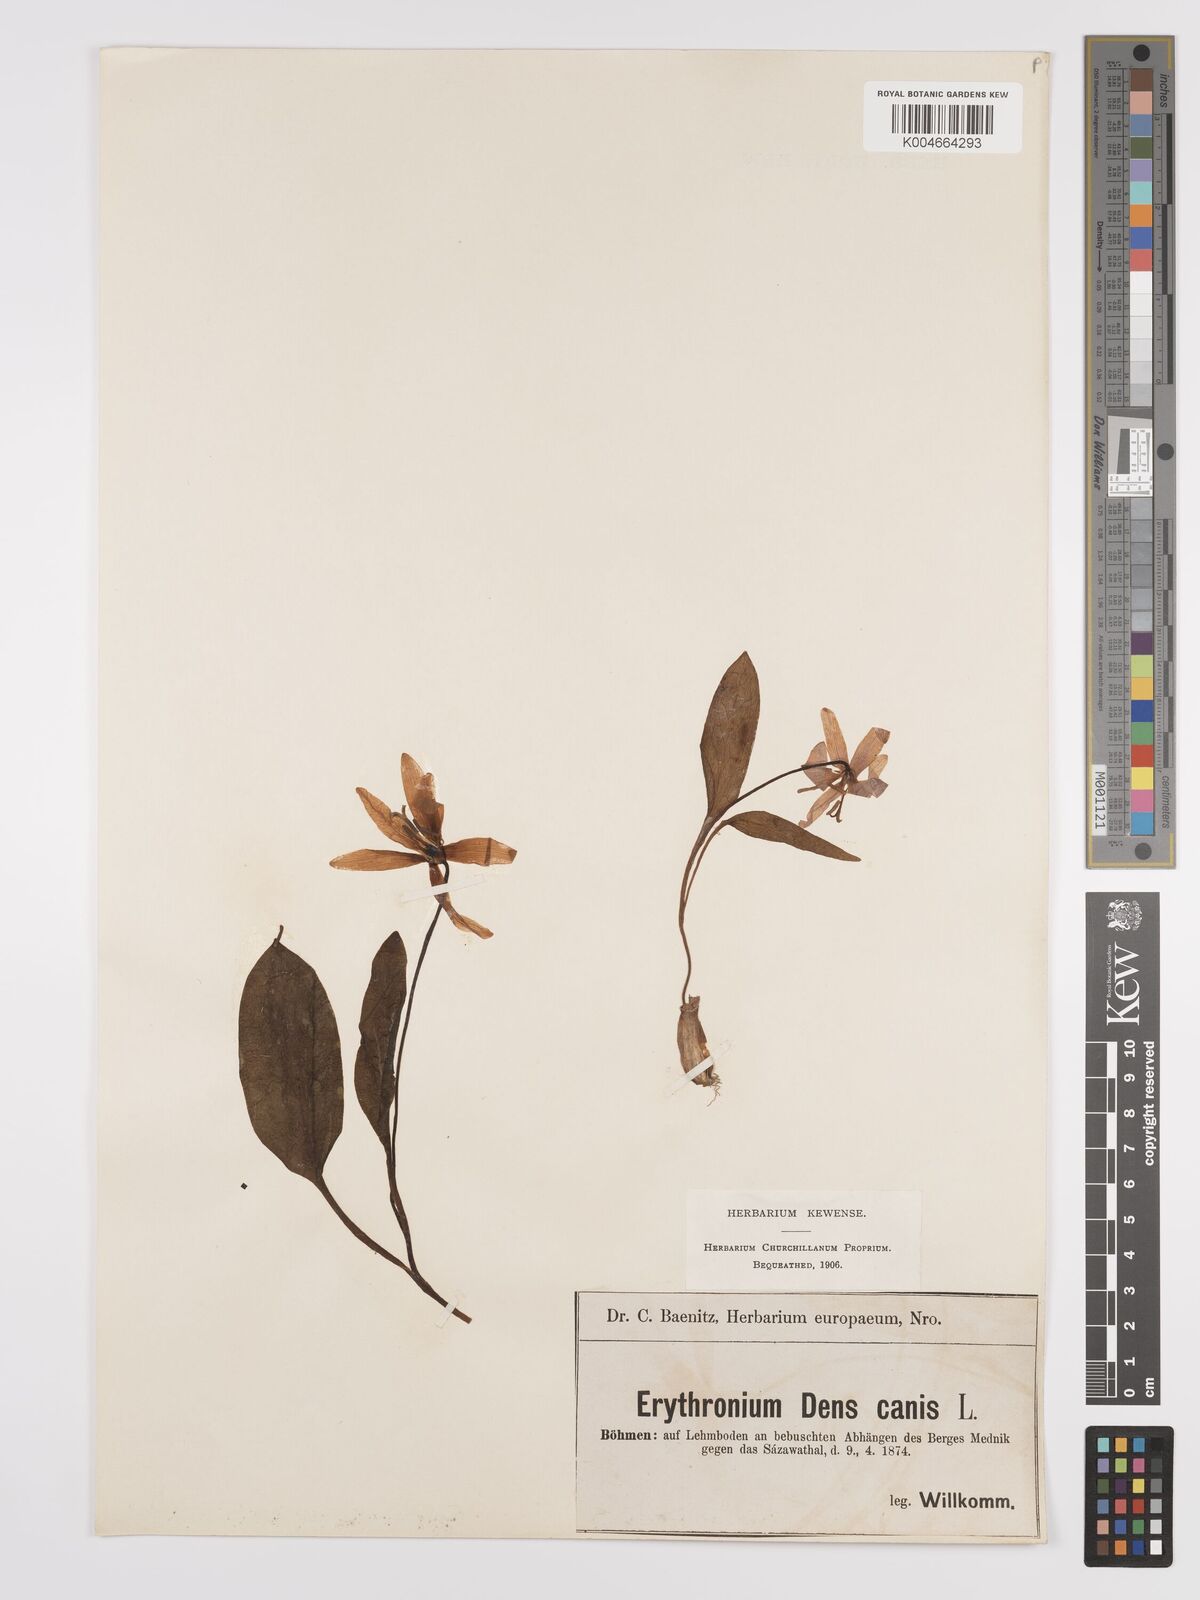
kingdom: Plantae
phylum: Tracheophyta
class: Liliopsida
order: Liliales
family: Liliaceae
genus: Erythronium
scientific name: Erythronium dens-canis
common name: Dog's-tooth-violet
